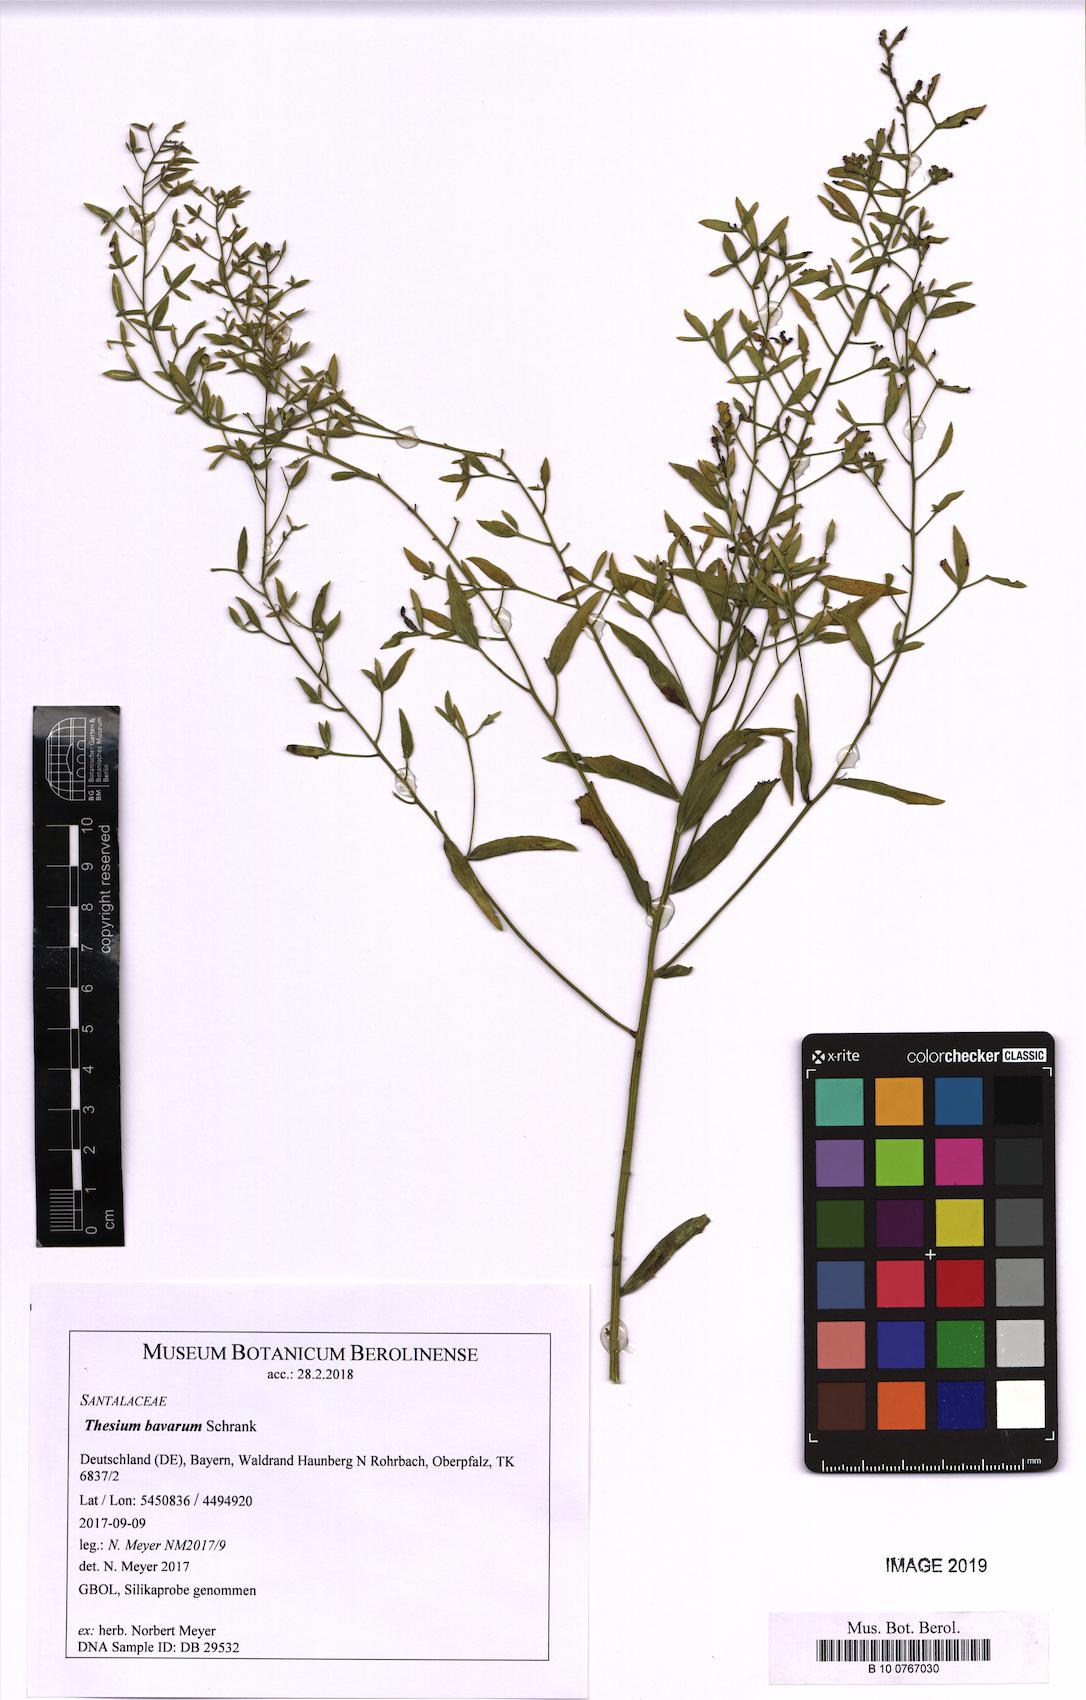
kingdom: Plantae
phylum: Tracheophyta
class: Magnoliopsida
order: Santalales
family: Thesiaceae
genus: Thesium
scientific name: Thesium bavarum
